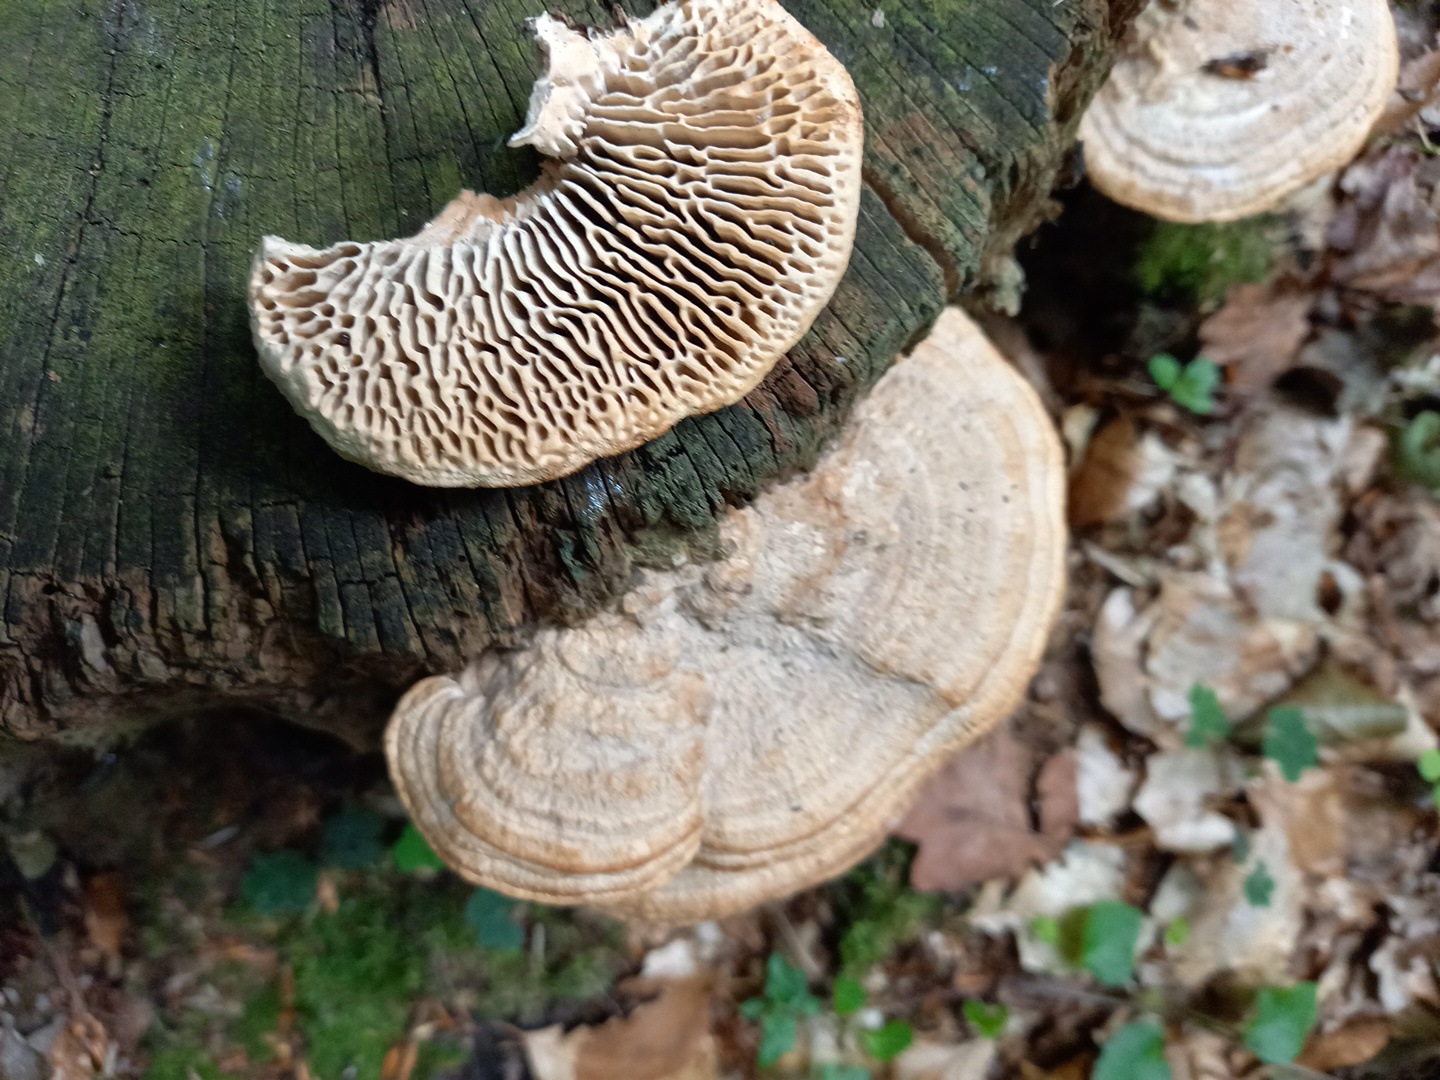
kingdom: Fungi
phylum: Basidiomycota
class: Agaricomycetes
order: Polyporales
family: Fomitopsidaceae
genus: Daedalea
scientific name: Daedalea quercina
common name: ege-labyrintsvamp
